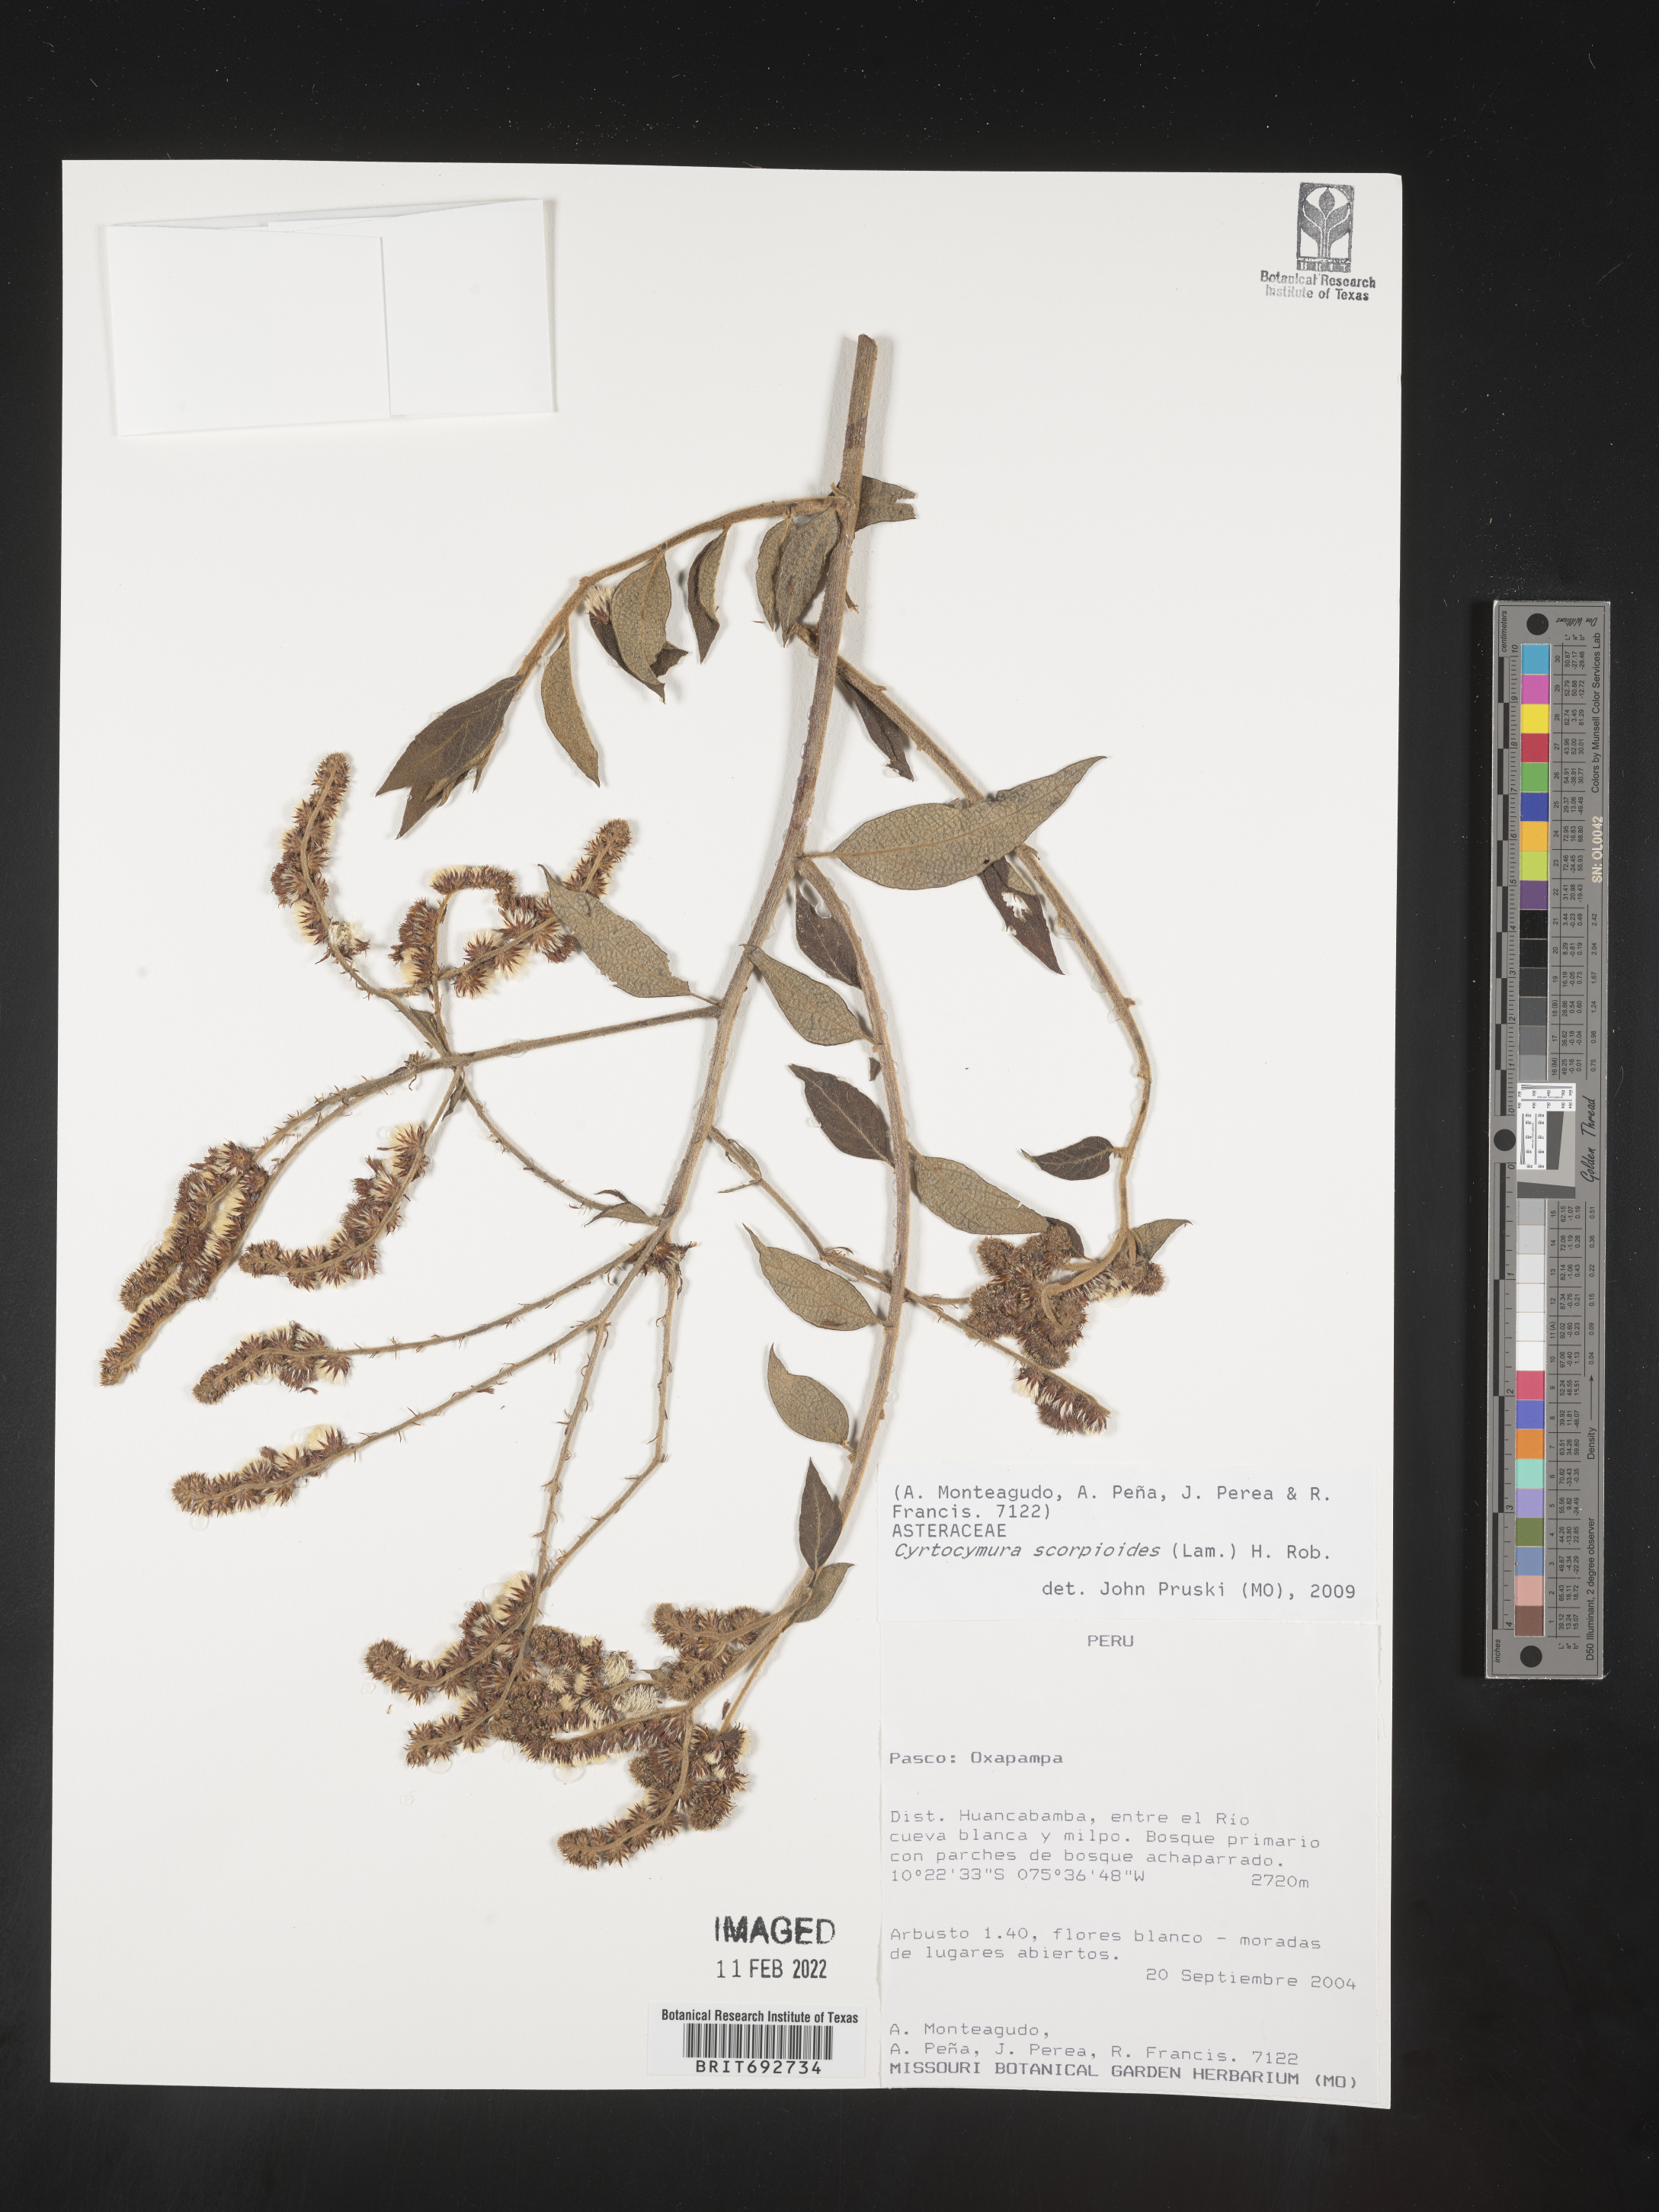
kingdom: Plantae
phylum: Tracheophyta
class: Magnoliopsida
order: Asterales
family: Asteraceae
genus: Cyrtocymura
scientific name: Cyrtocymura
